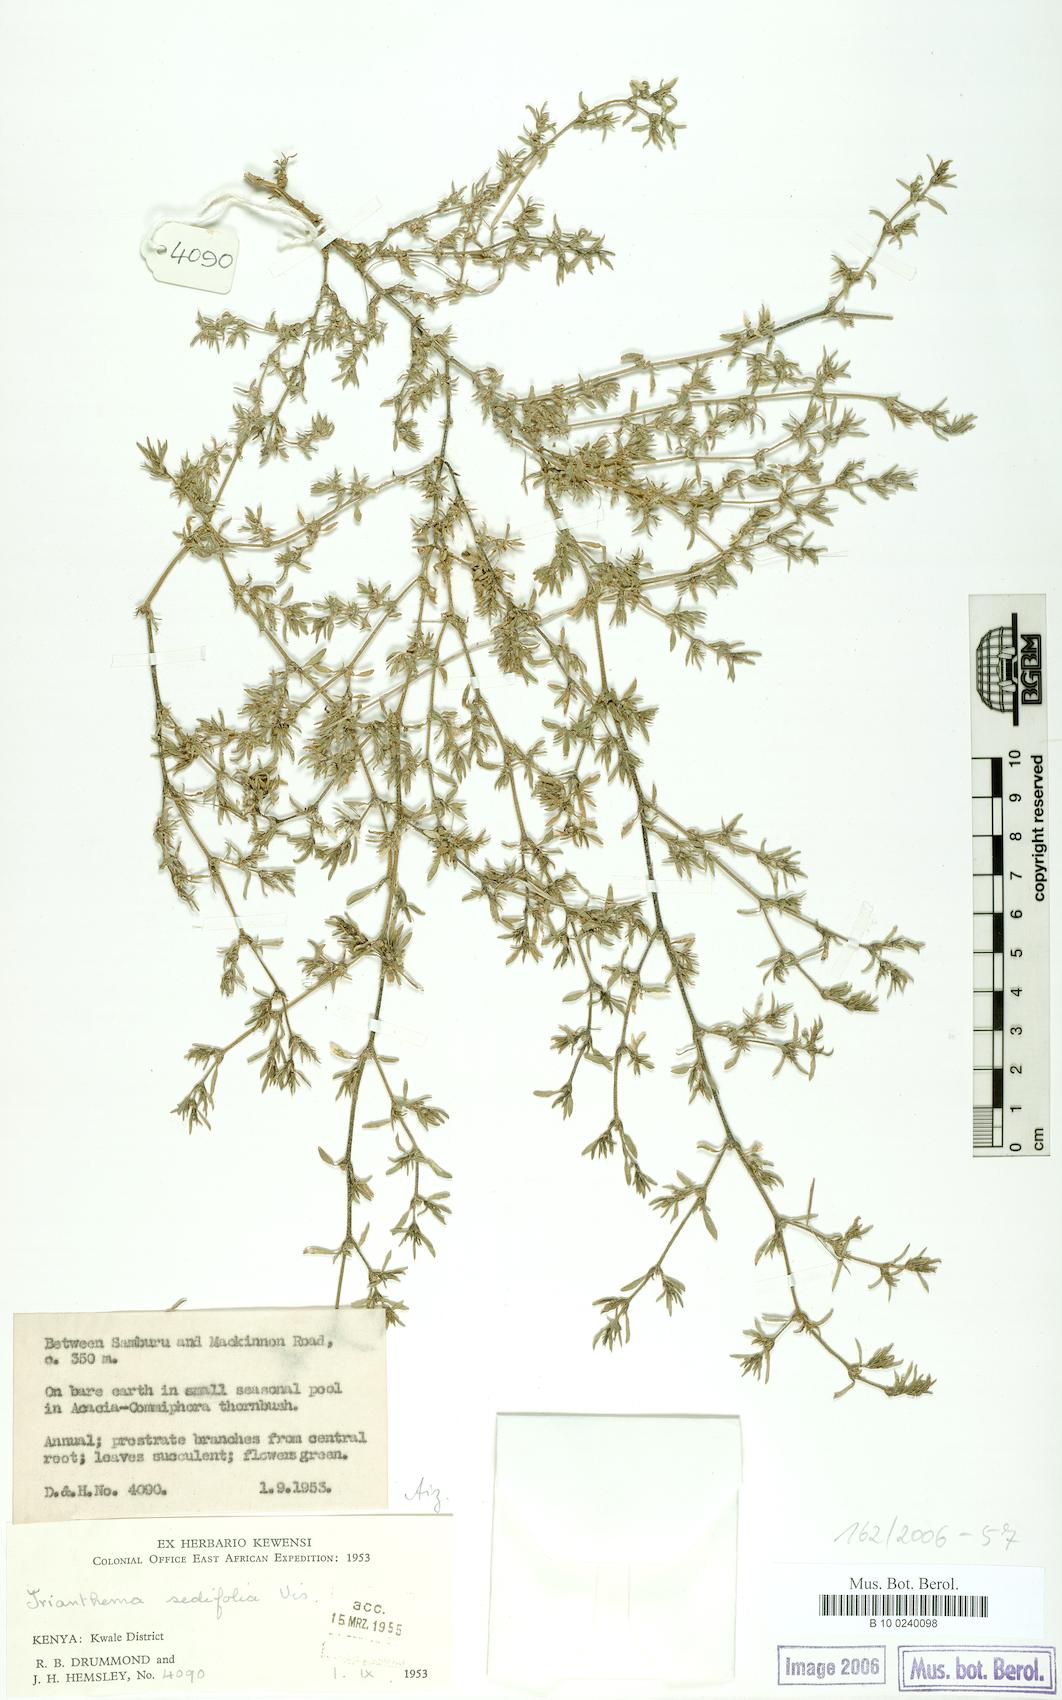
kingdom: Plantae
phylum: Tracheophyta
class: Magnoliopsida
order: Caryophyllales
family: Aizoaceae
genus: Trianthema
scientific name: Trianthema triquetrum
